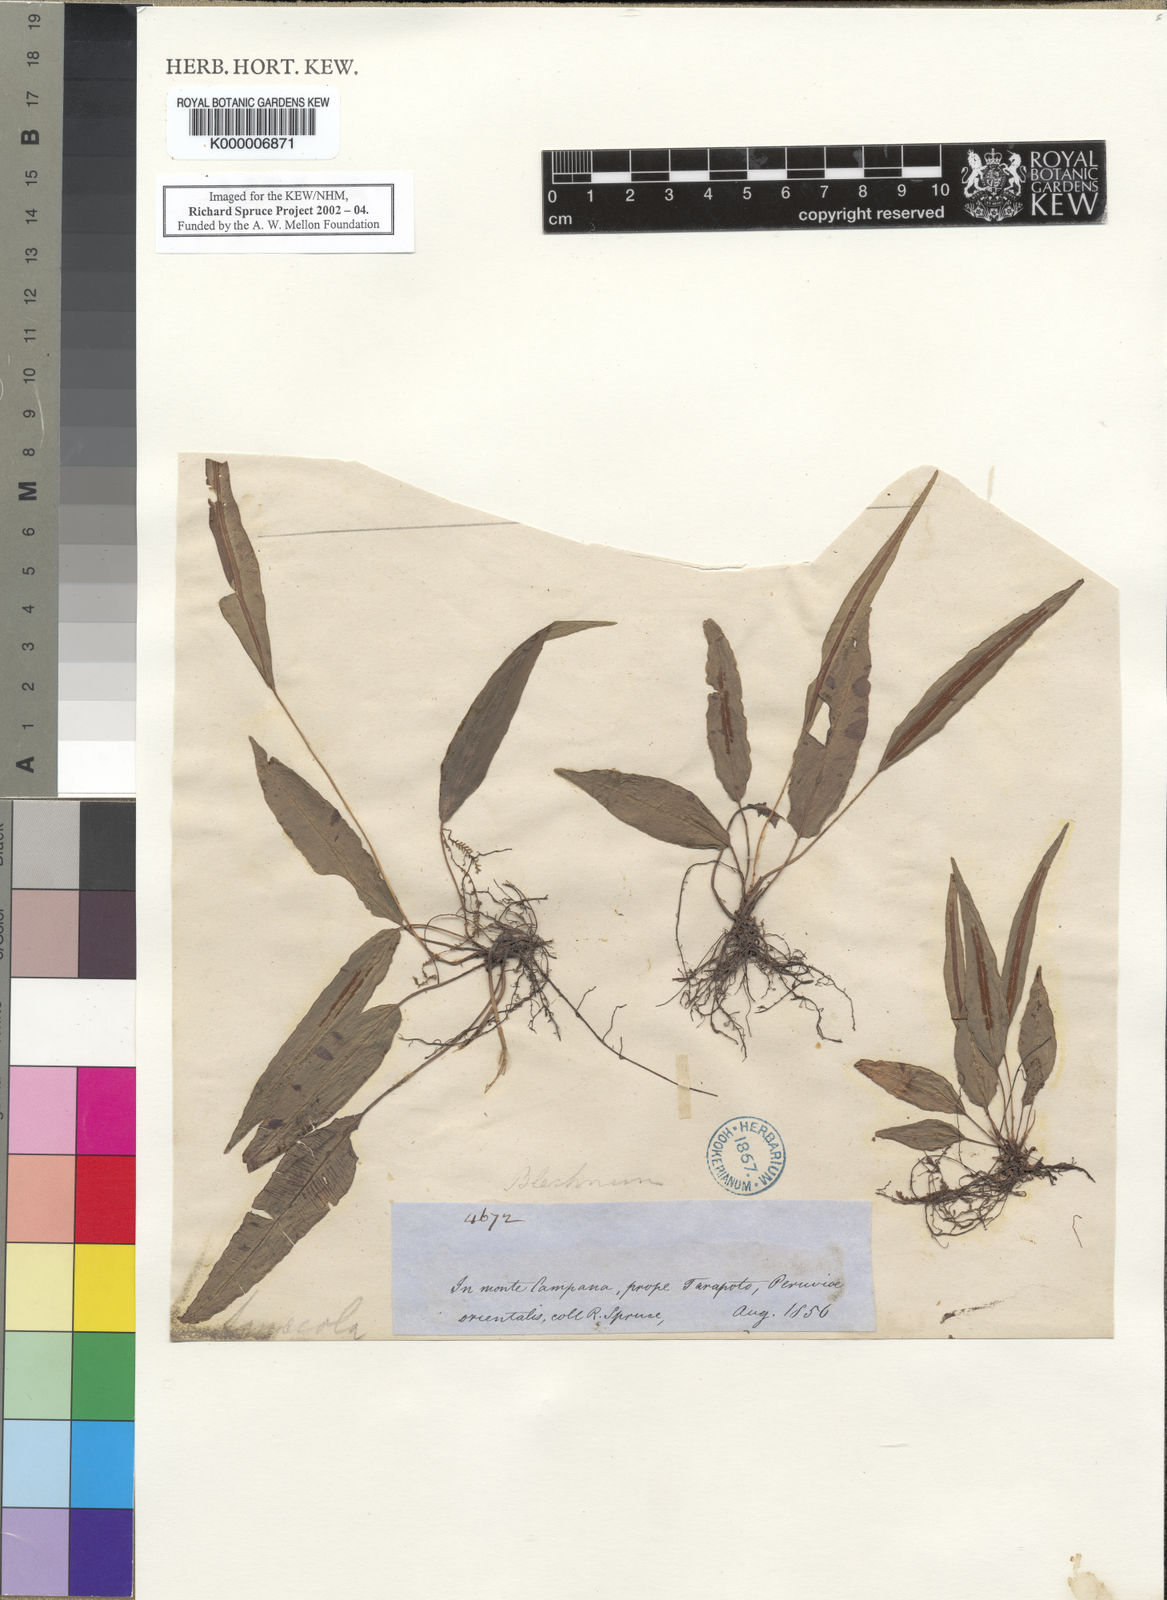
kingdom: Plantae
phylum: Tracheophyta
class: Polypodiopsida
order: Polypodiales
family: Blechnaceae
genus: Blechnum
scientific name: Blechnum
